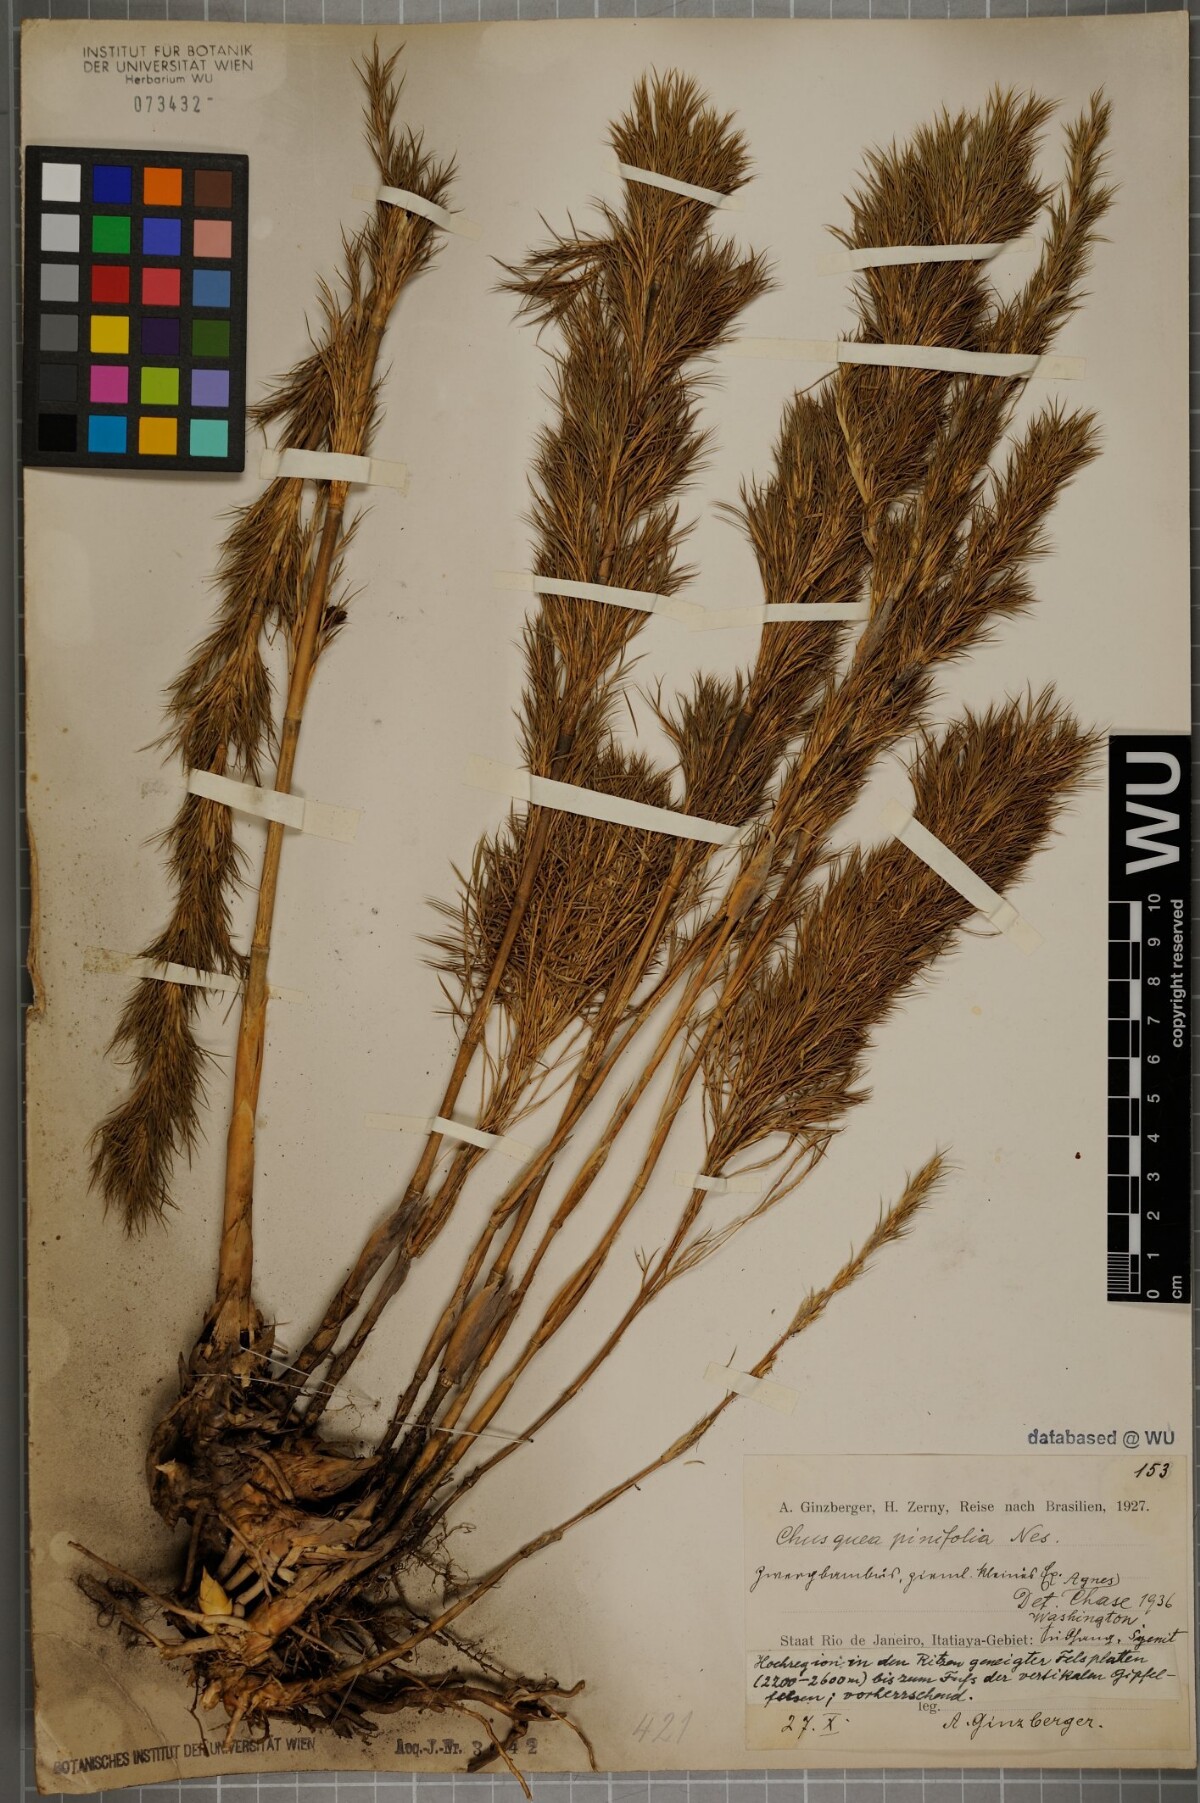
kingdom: Plantae
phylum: Tracheophyta
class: Liliopsida
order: Poales
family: Poaceae
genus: Chusquea
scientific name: Chusquea pinifolia
